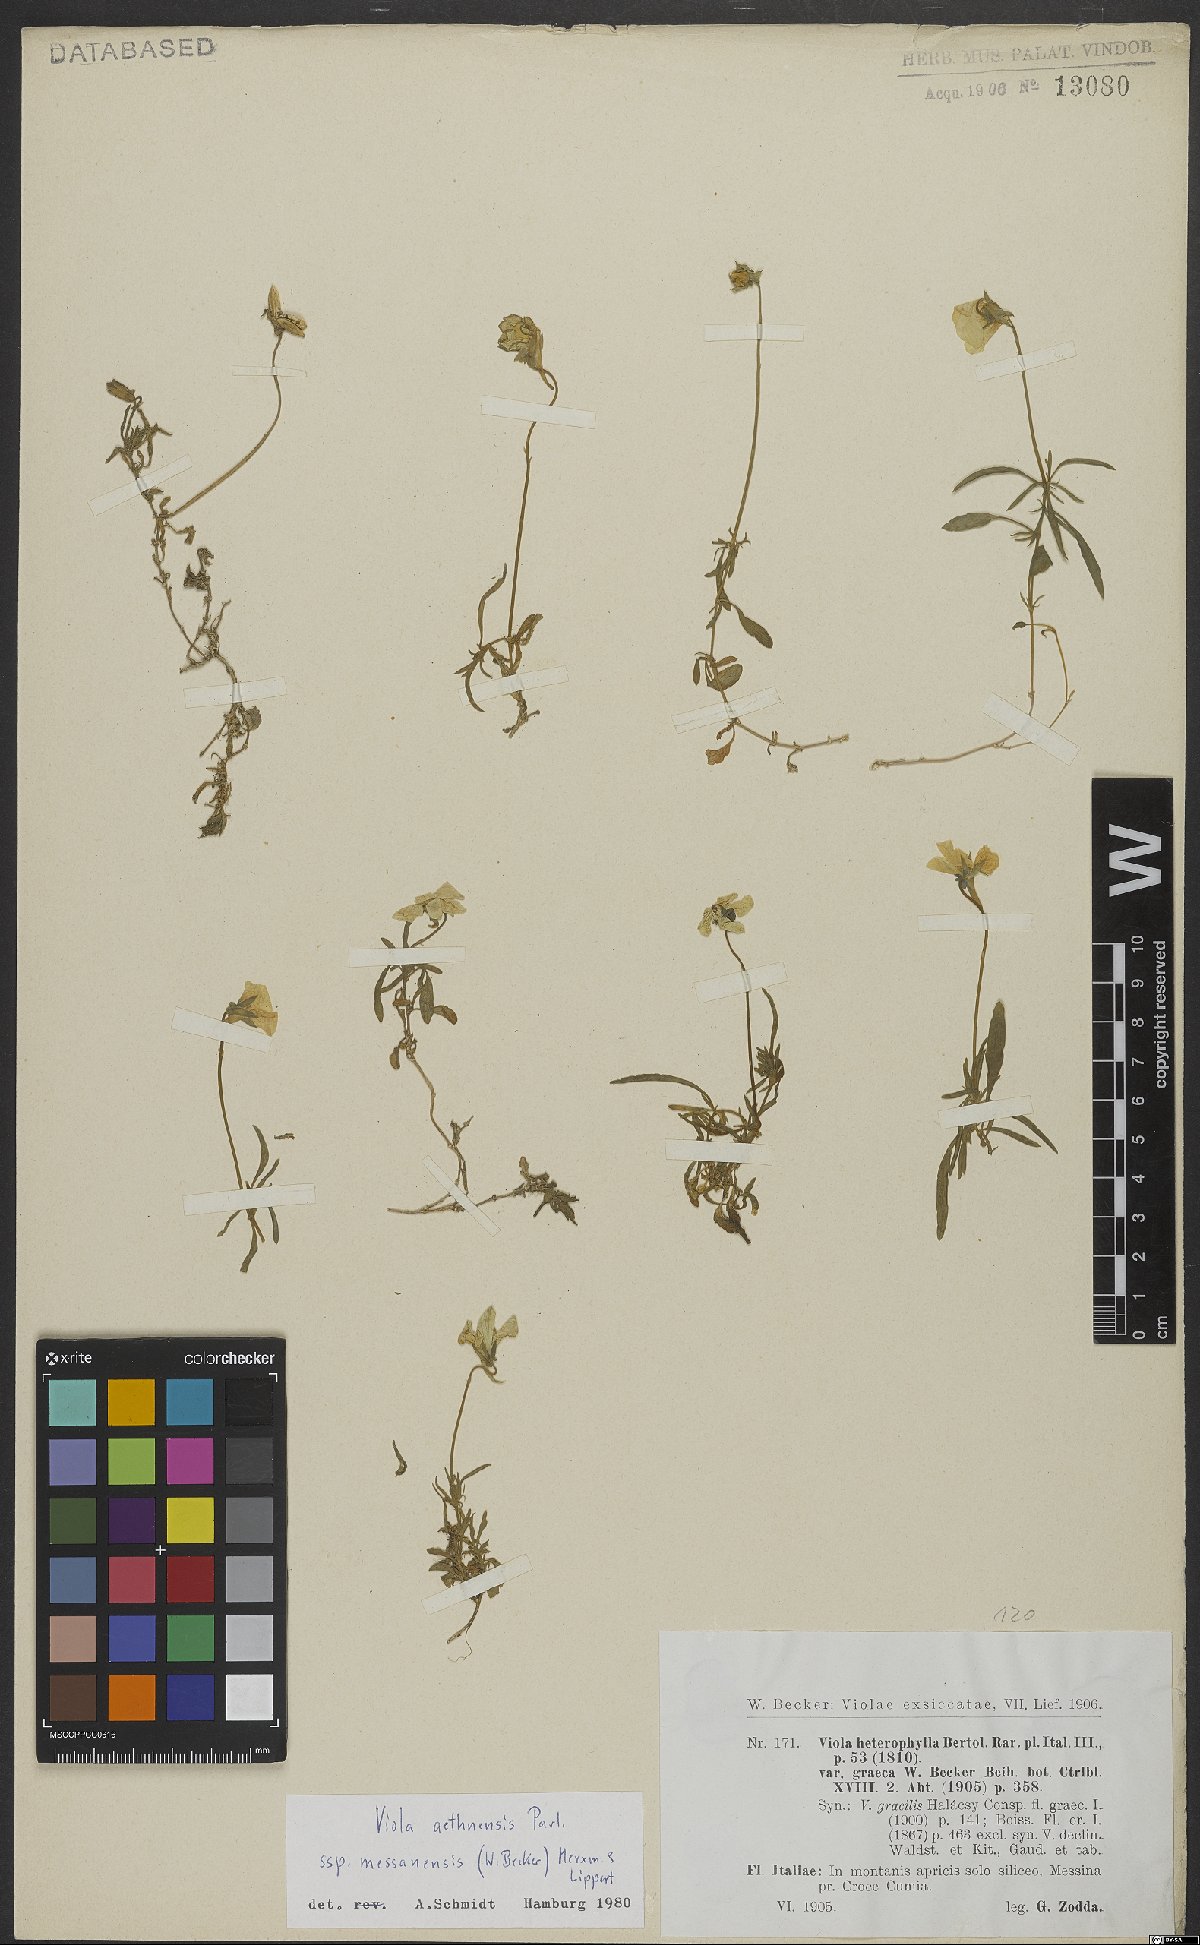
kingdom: Plantae
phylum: Tracheophyta
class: Magnoliopsida
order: Malpighiales
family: Violaceae
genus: Viola
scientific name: Viola aethnensis
